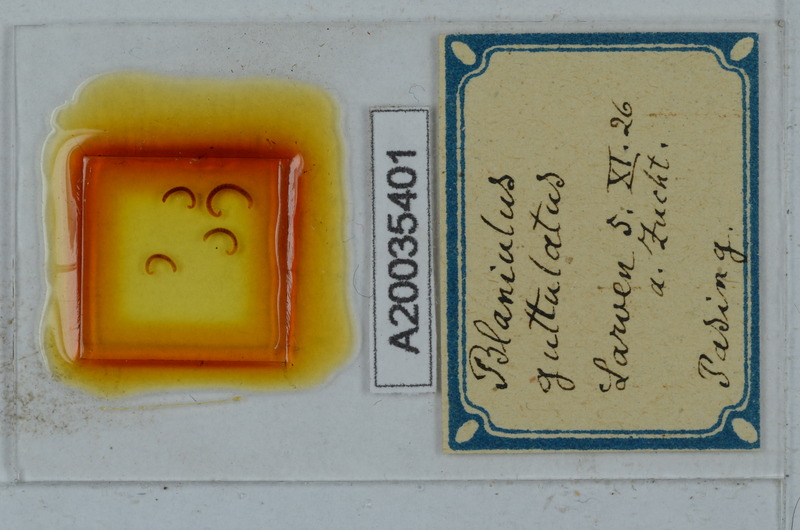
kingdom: Animalia
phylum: Arthropoda
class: Diplopoda
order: Julida
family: Blaniulidae
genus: Blaniulus
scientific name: Blaniulus guttulatus
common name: Spotted snake millipede
